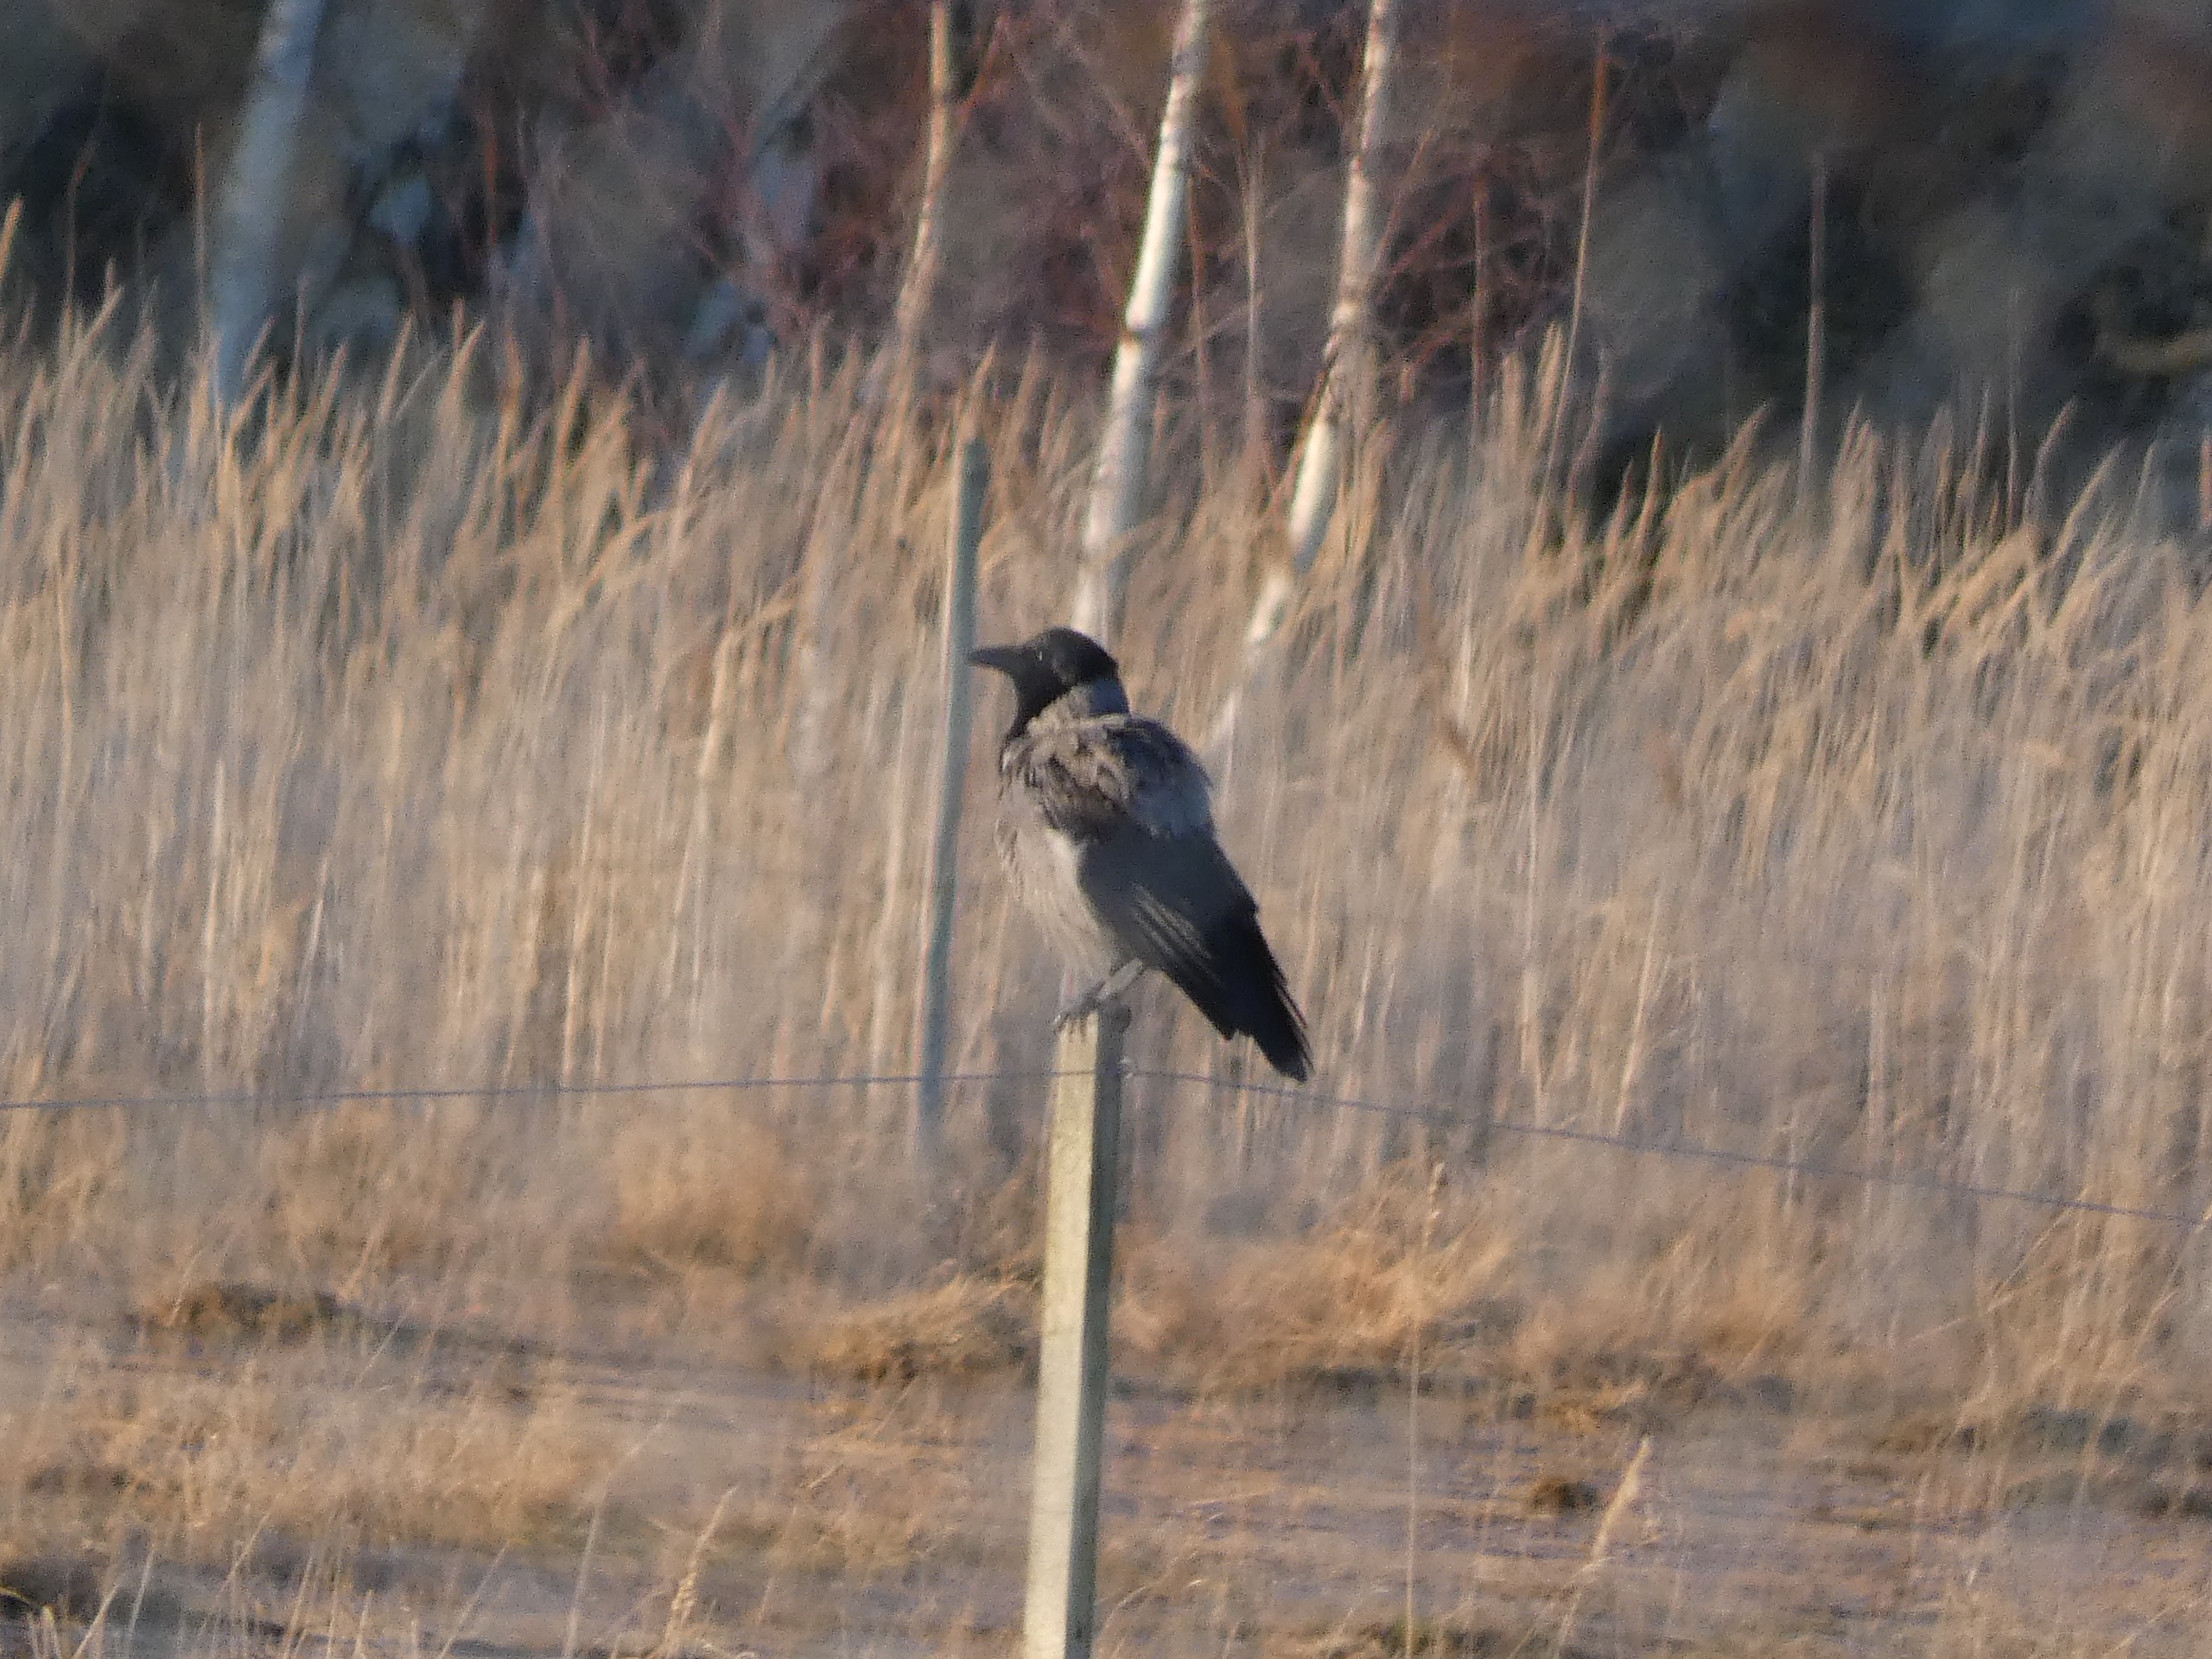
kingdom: Animalia
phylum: Chordata
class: Aves
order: Passeriformes
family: Corvidae
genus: Corvus
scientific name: Corvus cornix
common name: Gråkrage
